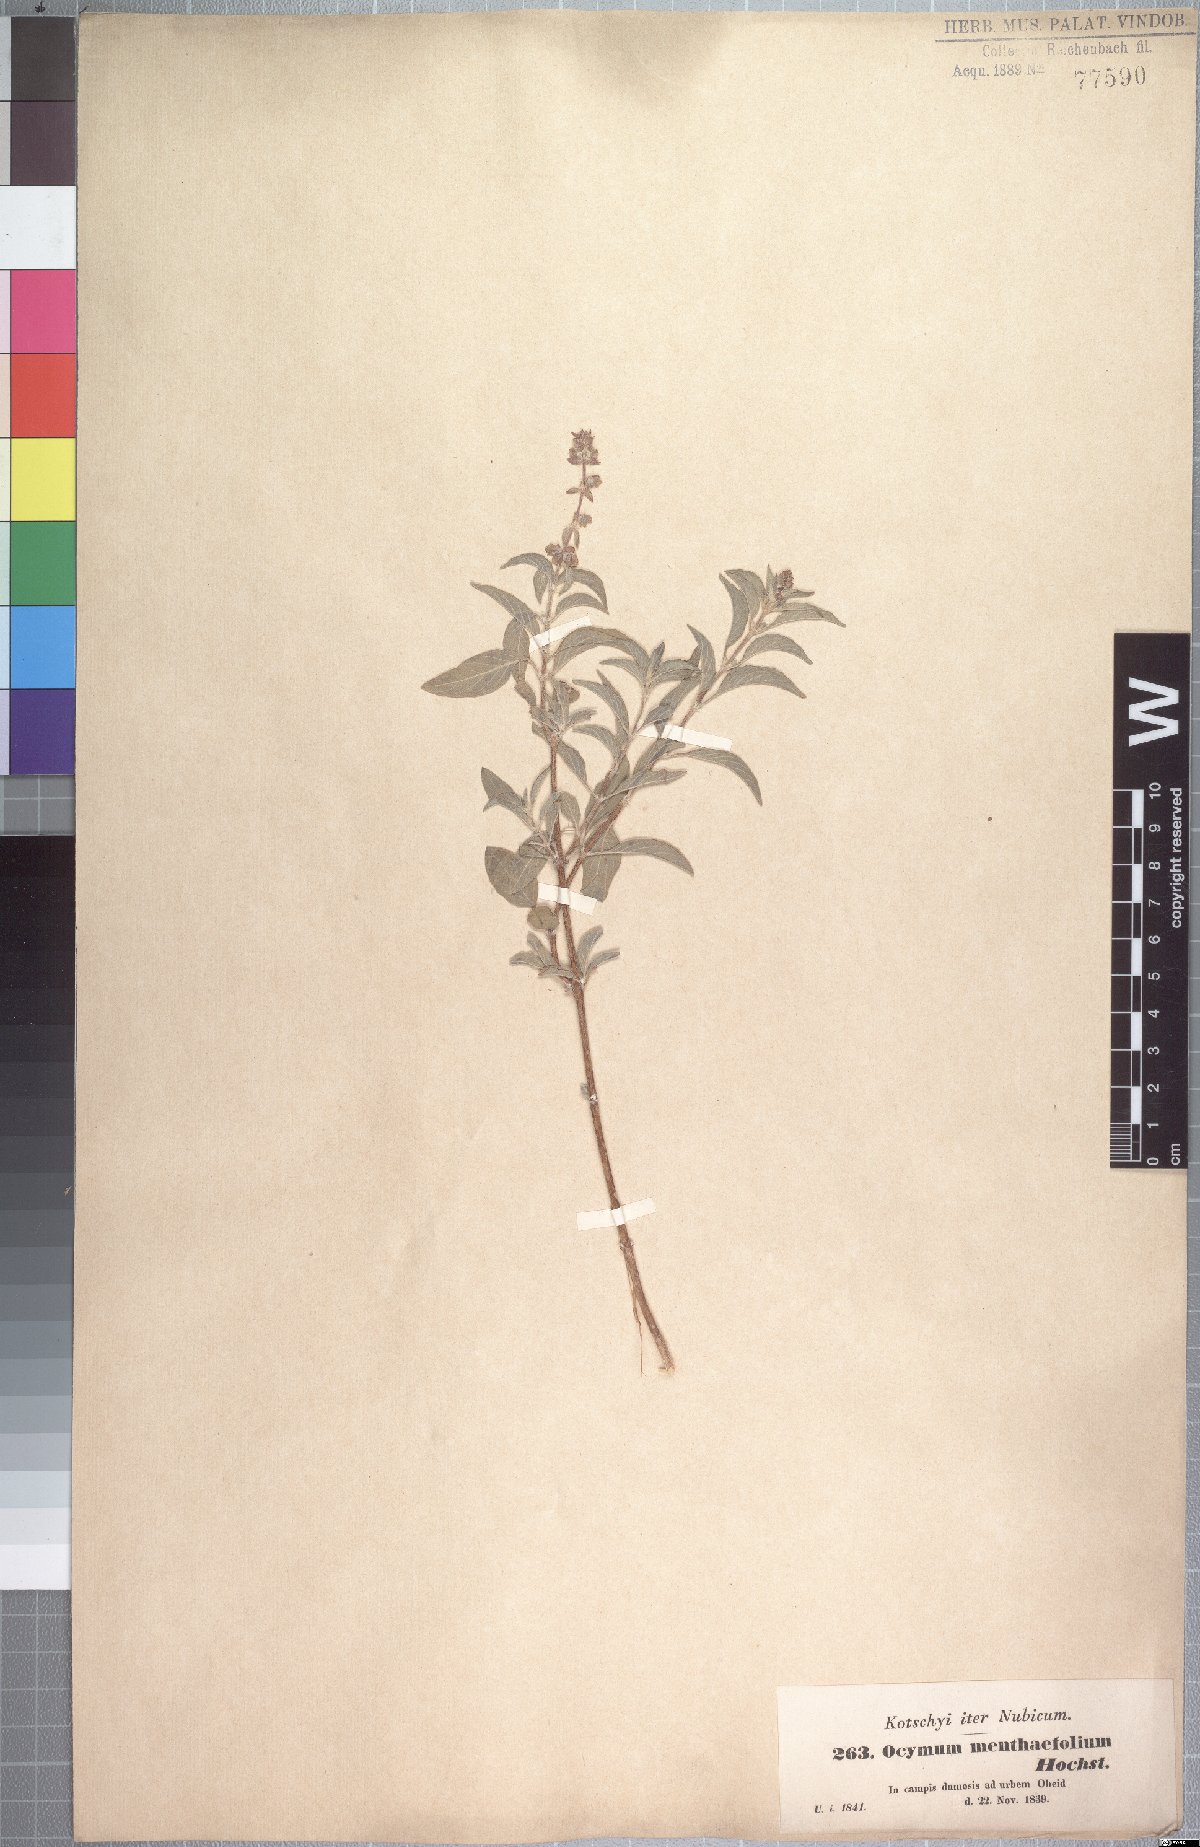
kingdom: Plantae
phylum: Tracheophyta
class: Magnoliopsida
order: Lamiales
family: Lamiaceae
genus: Ocimum
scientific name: Ocimum forskoelei
